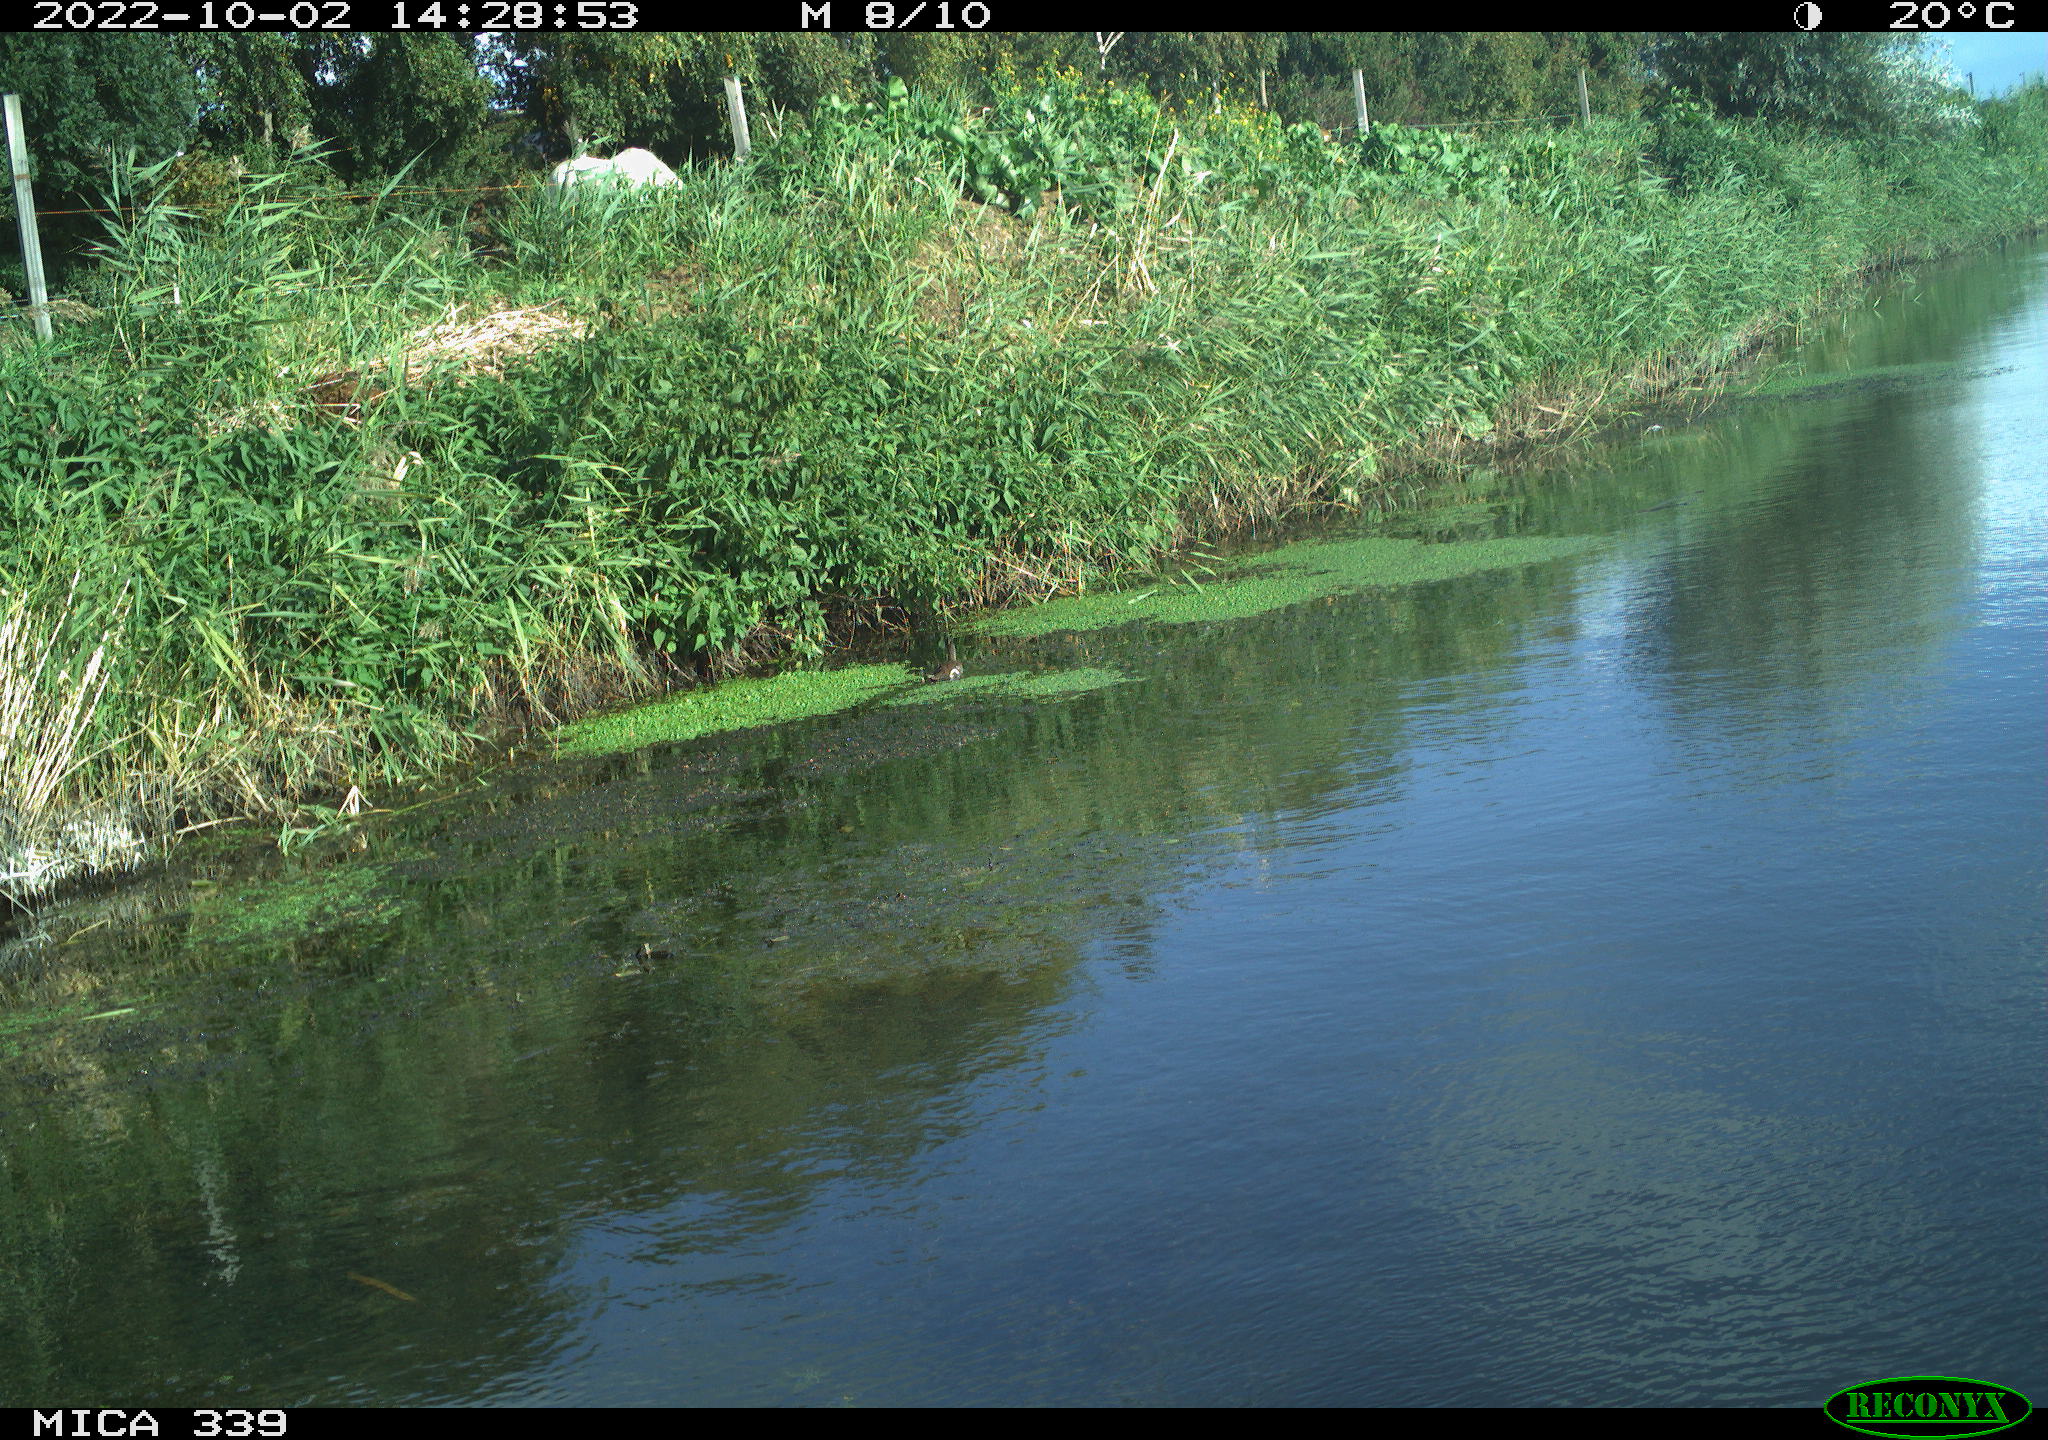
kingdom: Animalia
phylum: Chordata
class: Aves
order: Gruiformes
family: Rallidae
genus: Gallinula
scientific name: Gallinula chloropus
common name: Common moorhen
